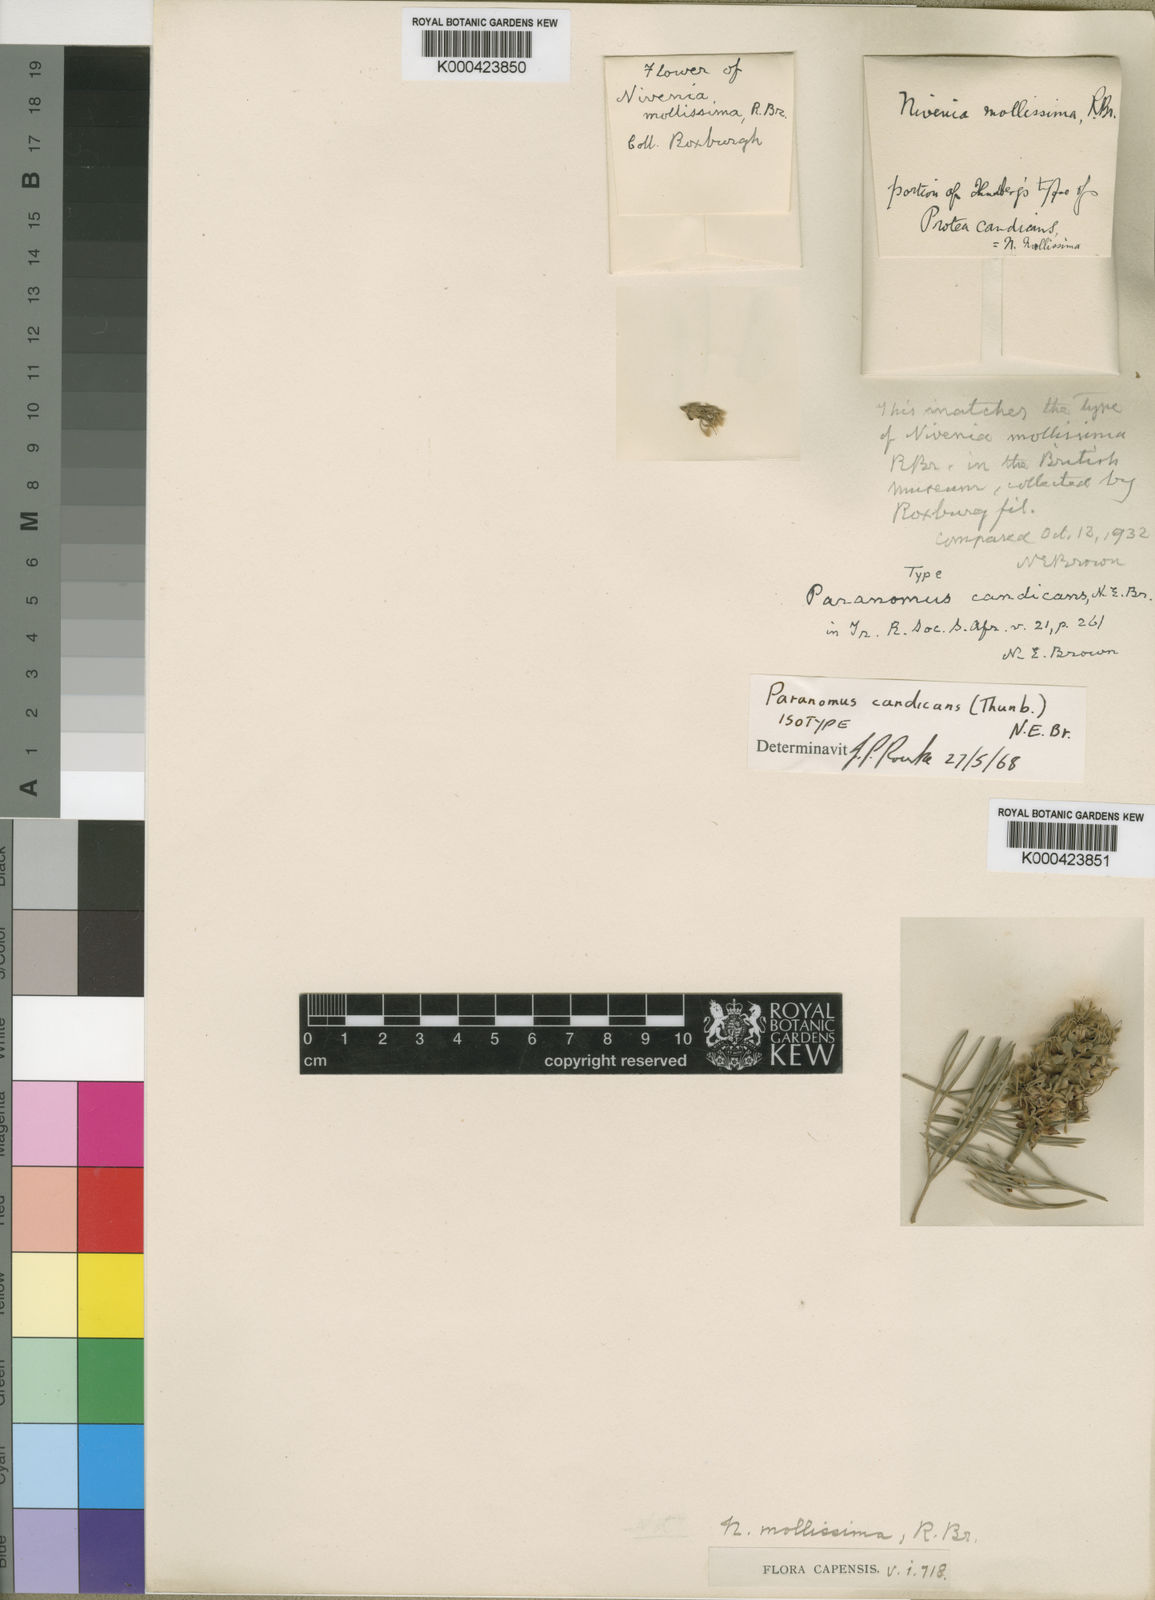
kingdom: Plantae
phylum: Tracheophyta
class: Magnoliopsida
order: Proteales
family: Proteaceae
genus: Paranomus
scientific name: Paranomus candicans
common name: Powder sceptre
